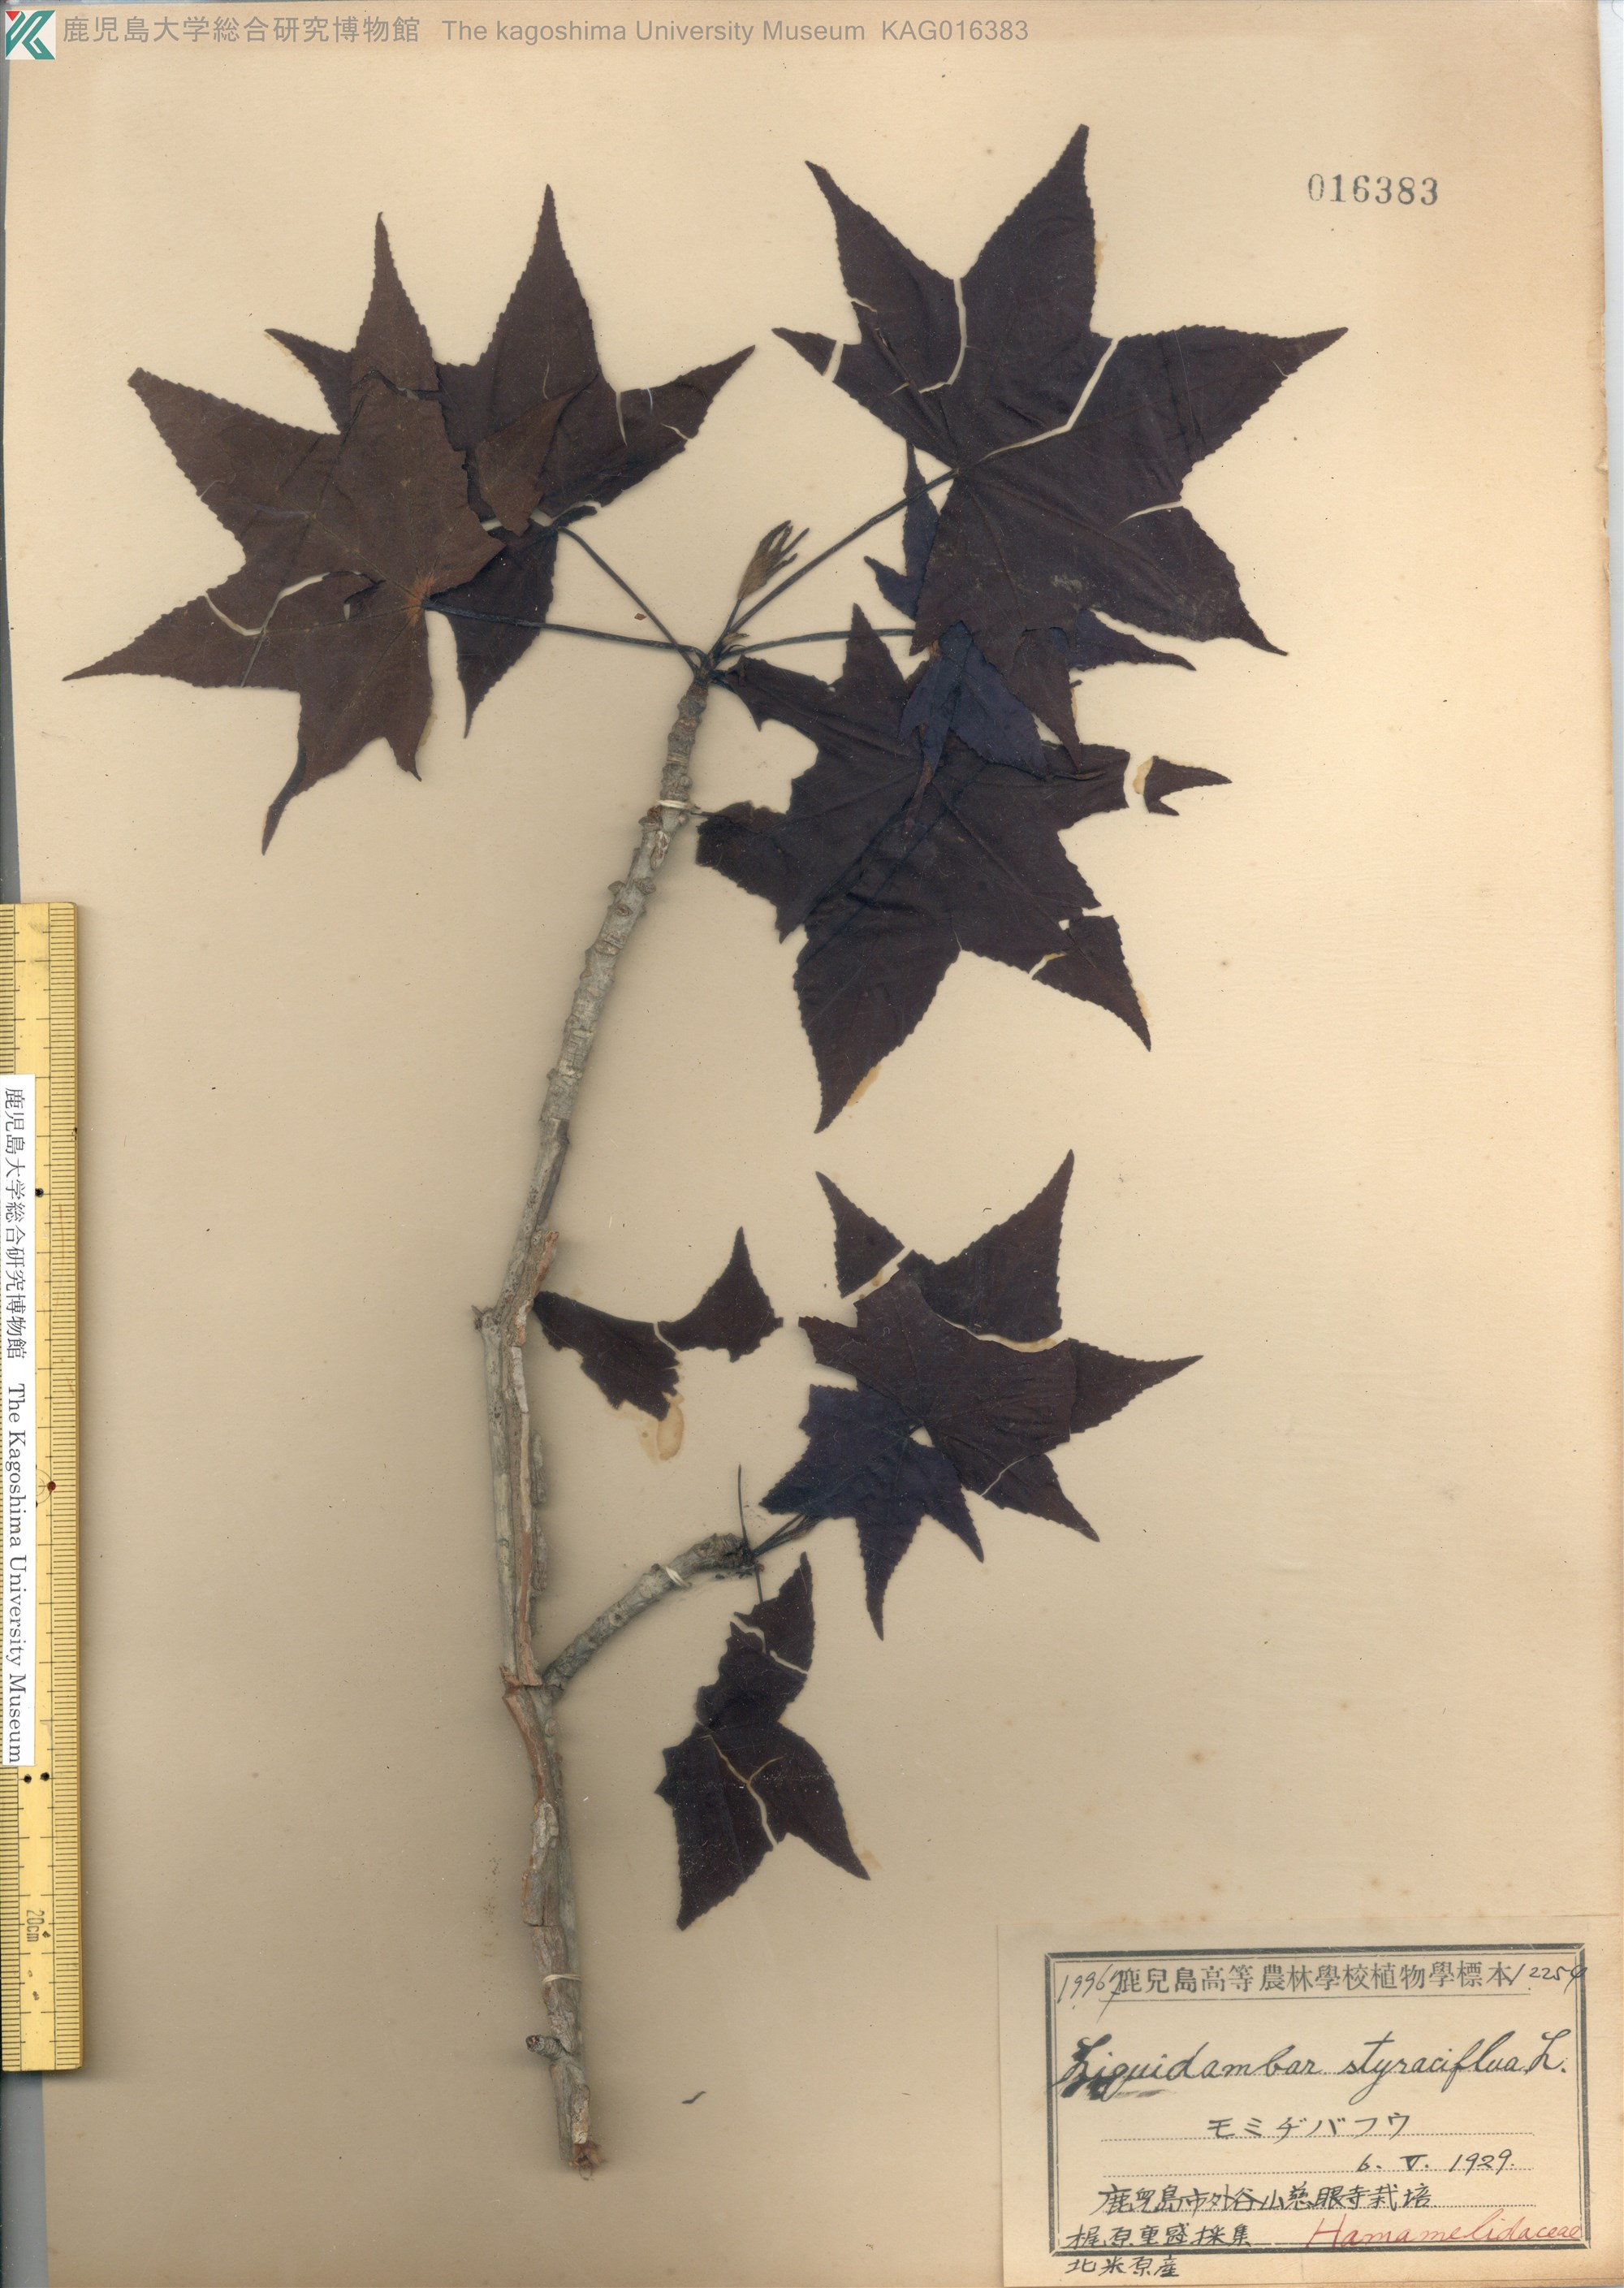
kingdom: Plantae
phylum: Tracheophyta
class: Magnoliopsida
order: Saxifragales
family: Altingiaceae
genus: Liquidambar
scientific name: Liquidambar styraciflua
